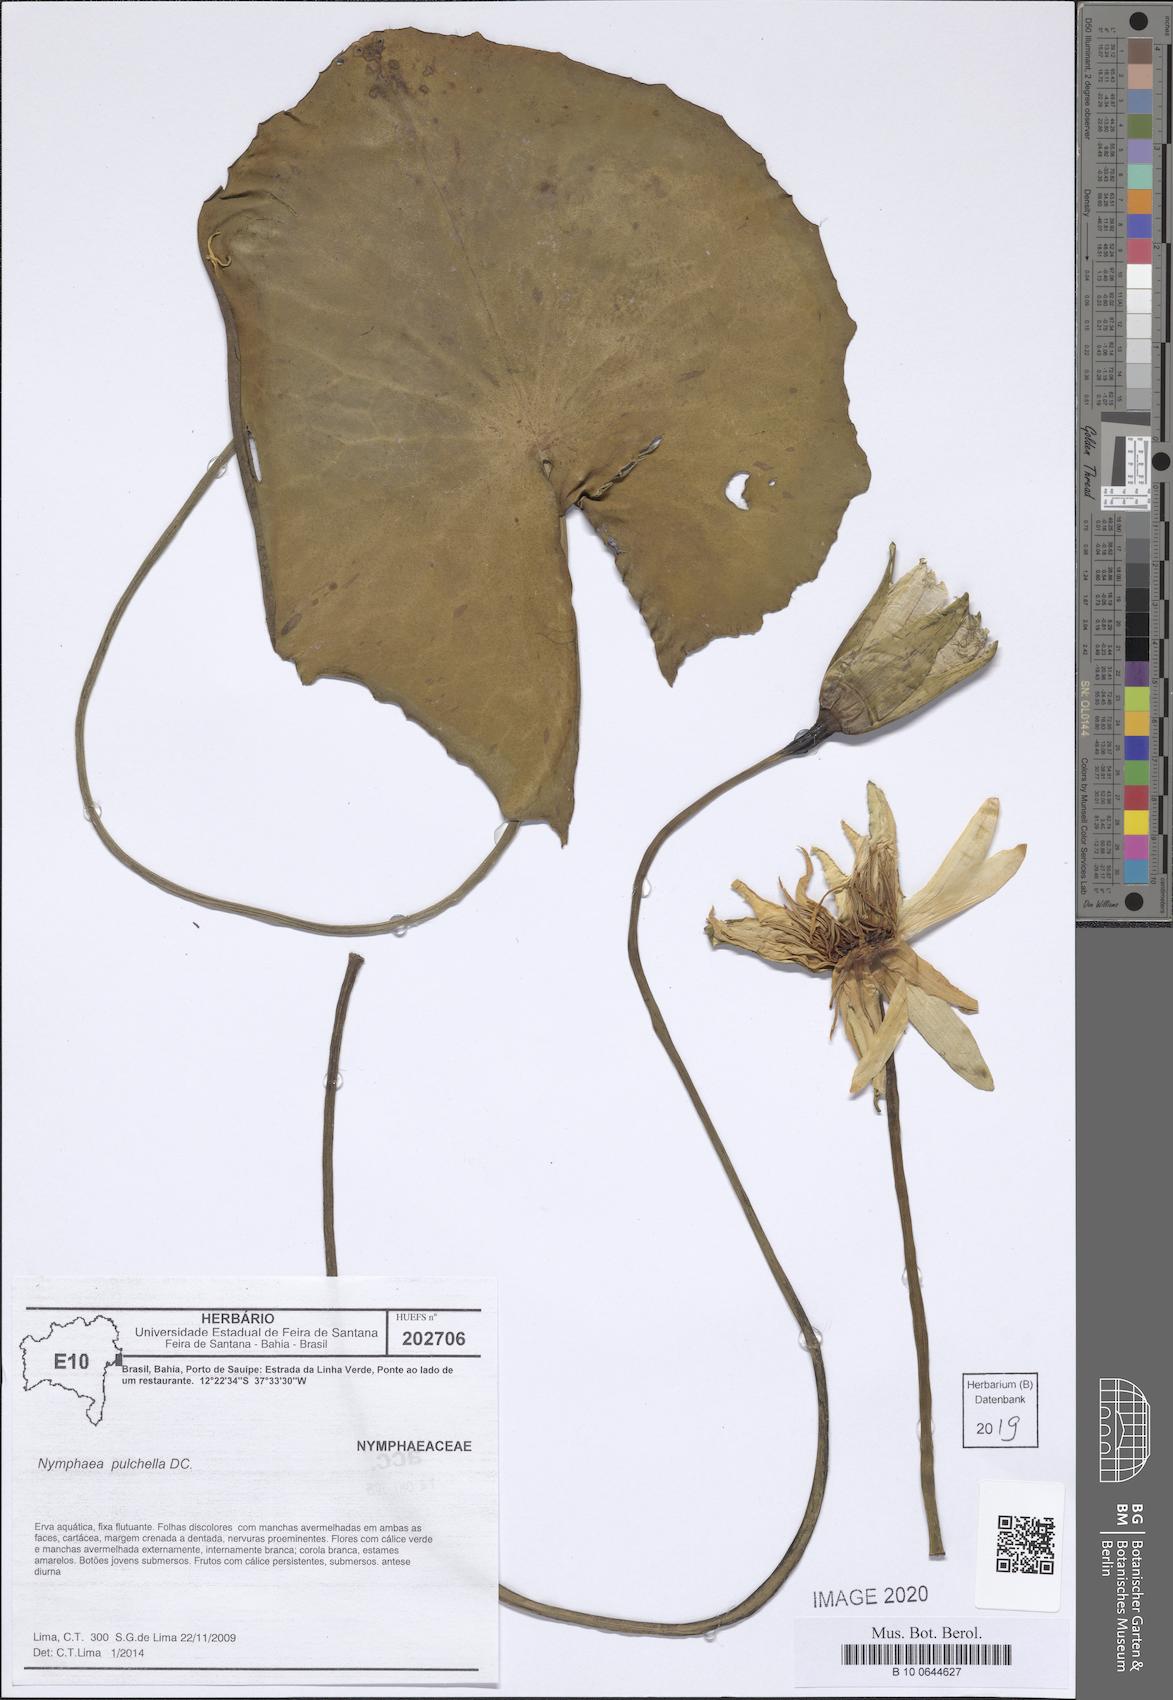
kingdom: Plantae
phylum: Tracheophyta
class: Magnoliopsida
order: Nymphaeales
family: Nymphaeaceae
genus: Nymphaea
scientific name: Nymphaea pulchella
